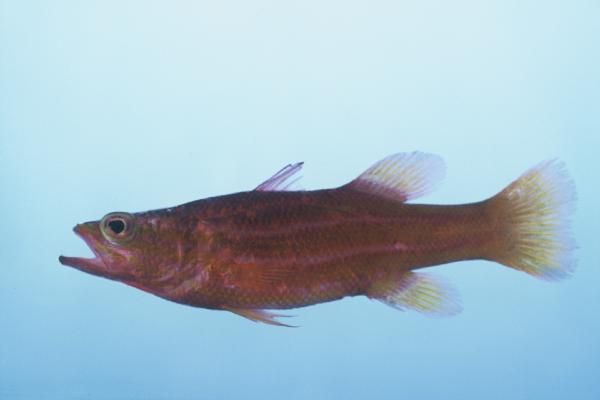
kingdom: Animalia
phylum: Chordata
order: Perciformes
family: Serranidae
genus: Liopropoma
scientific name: Liopropoma africanum
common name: African basslet
